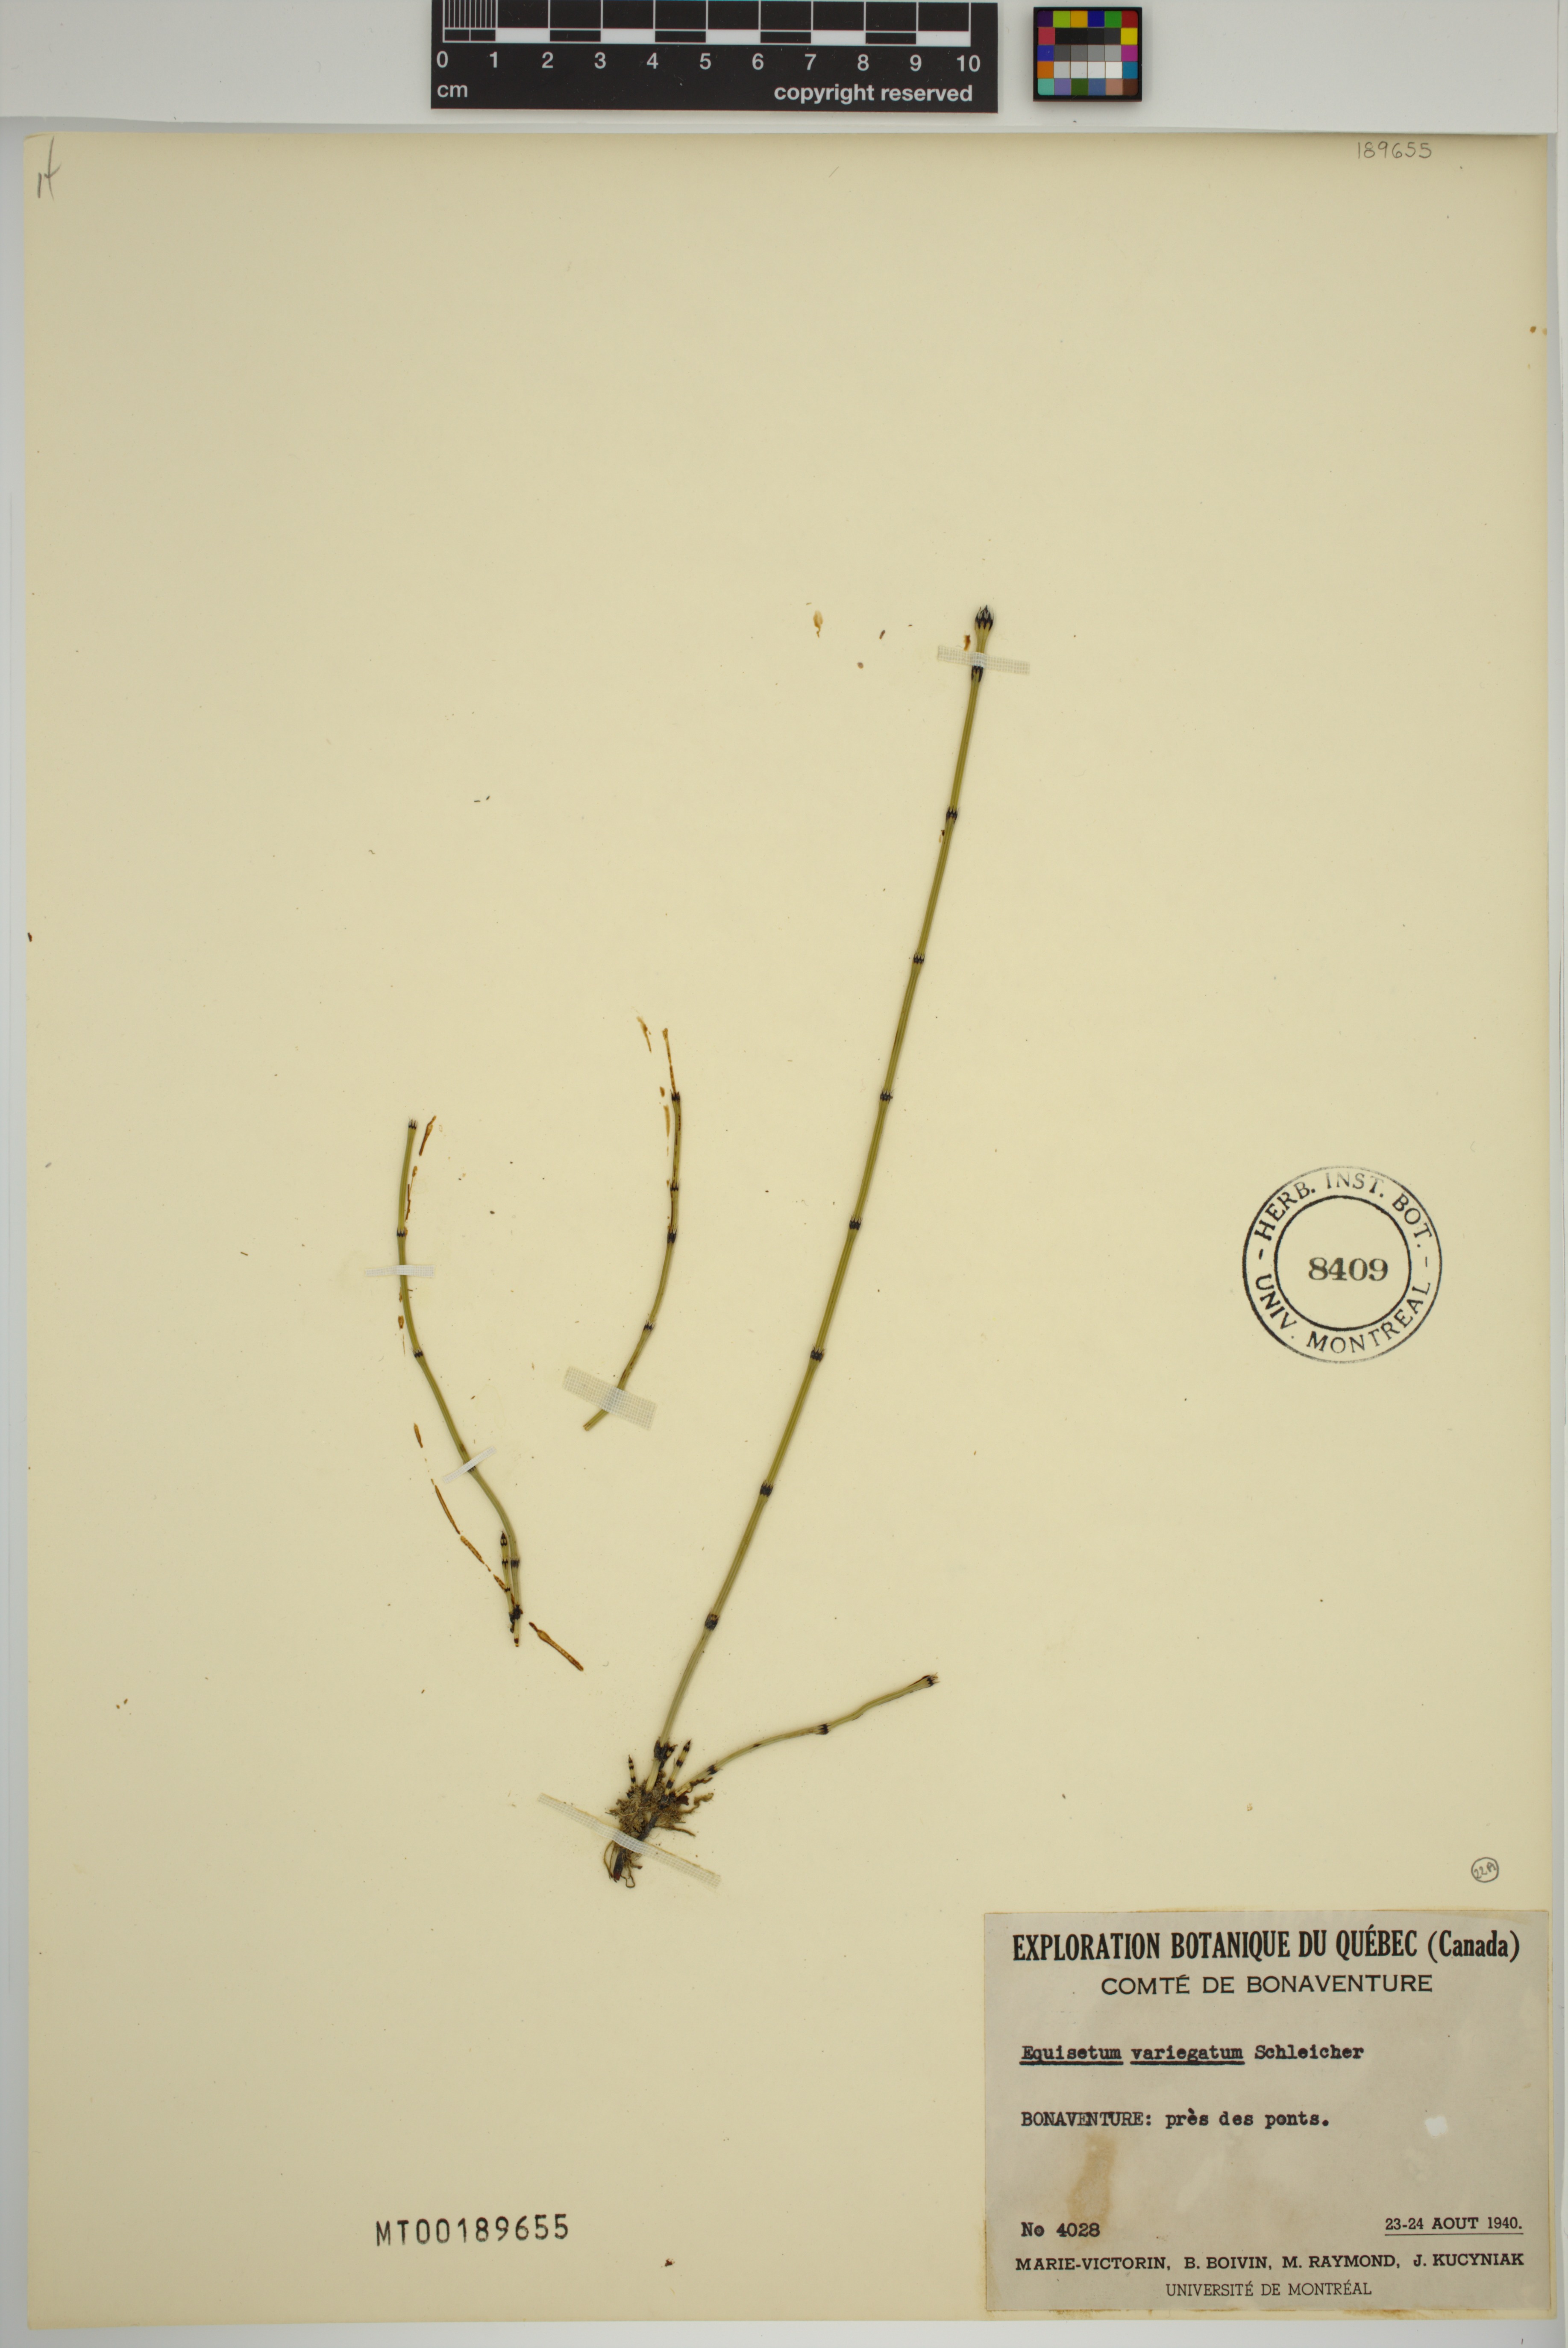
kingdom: Plantae
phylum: Tracheophyta
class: Polypodiopsida
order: Equisetales
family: Equisetaceae
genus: Equisetum
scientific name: Equisetum variegatum
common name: Variegated horsetail
